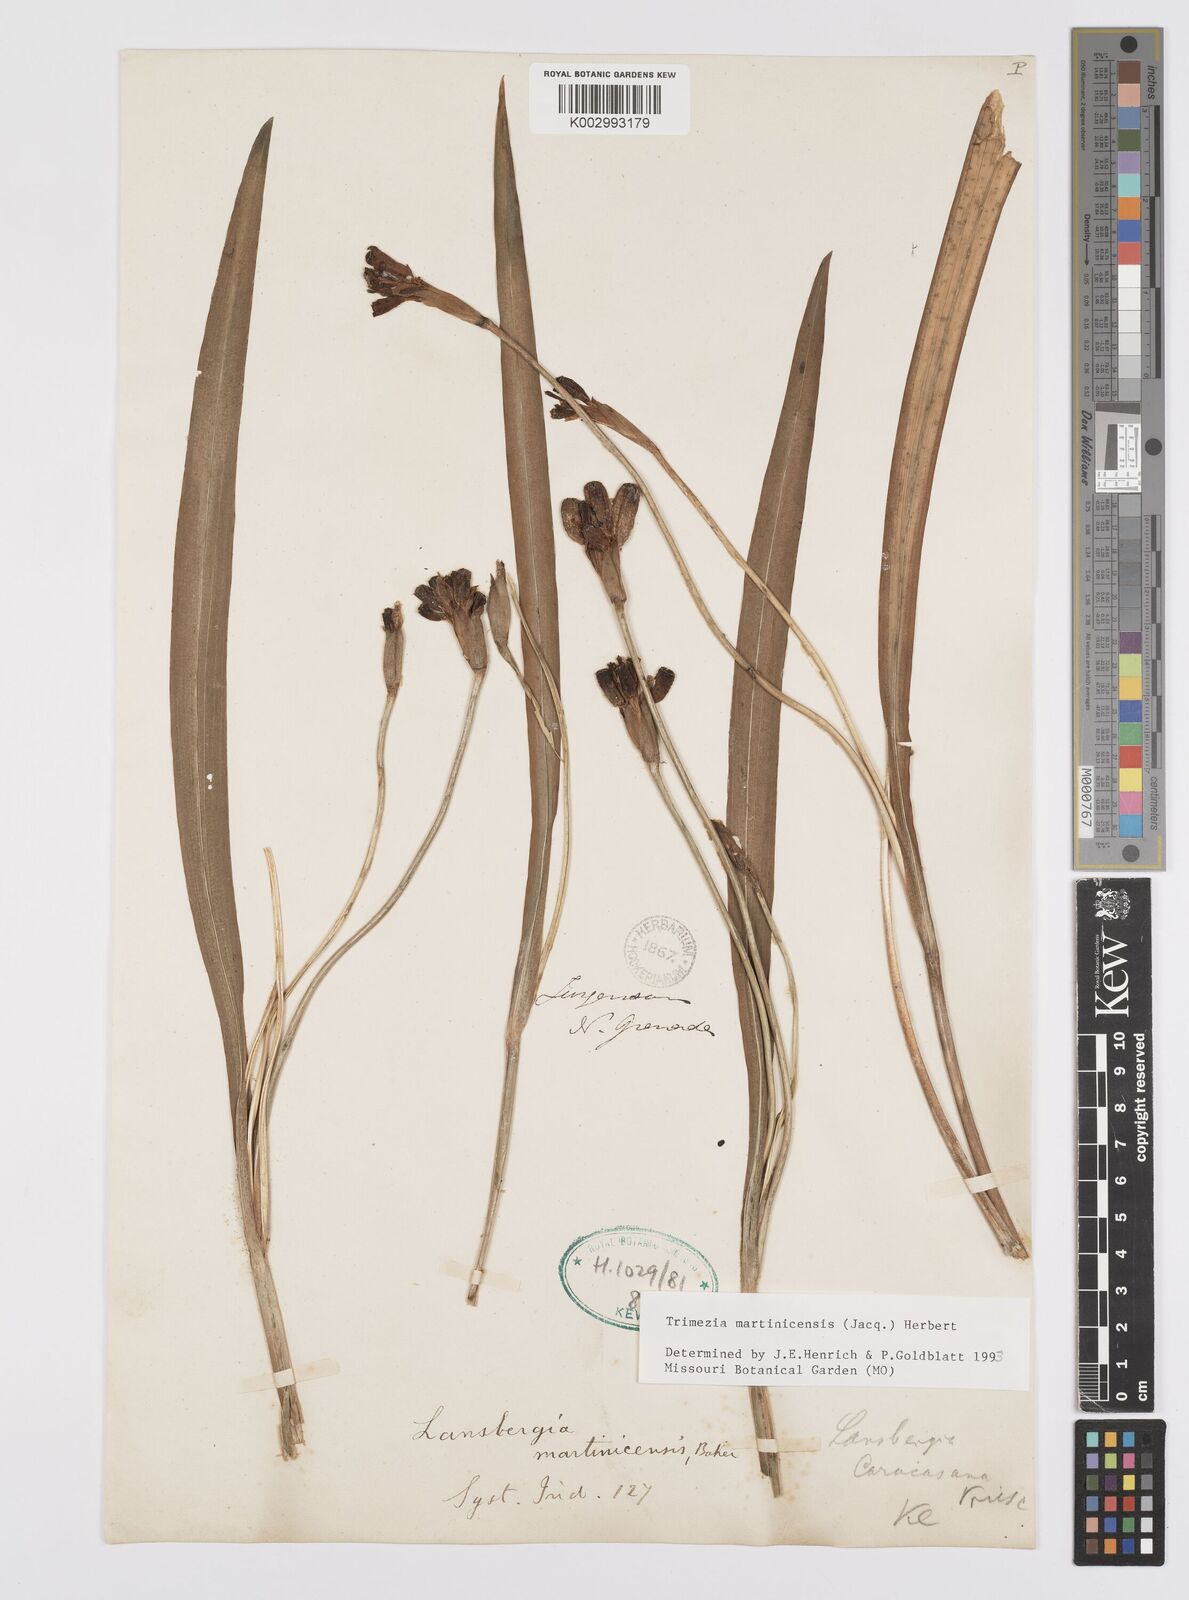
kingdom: Plantae
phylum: Tracheophyta
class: Liliopsida
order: Asparagales
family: Iridaceae
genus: Trimezia
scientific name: Trimezia martinicensis
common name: Martinique trimezia
